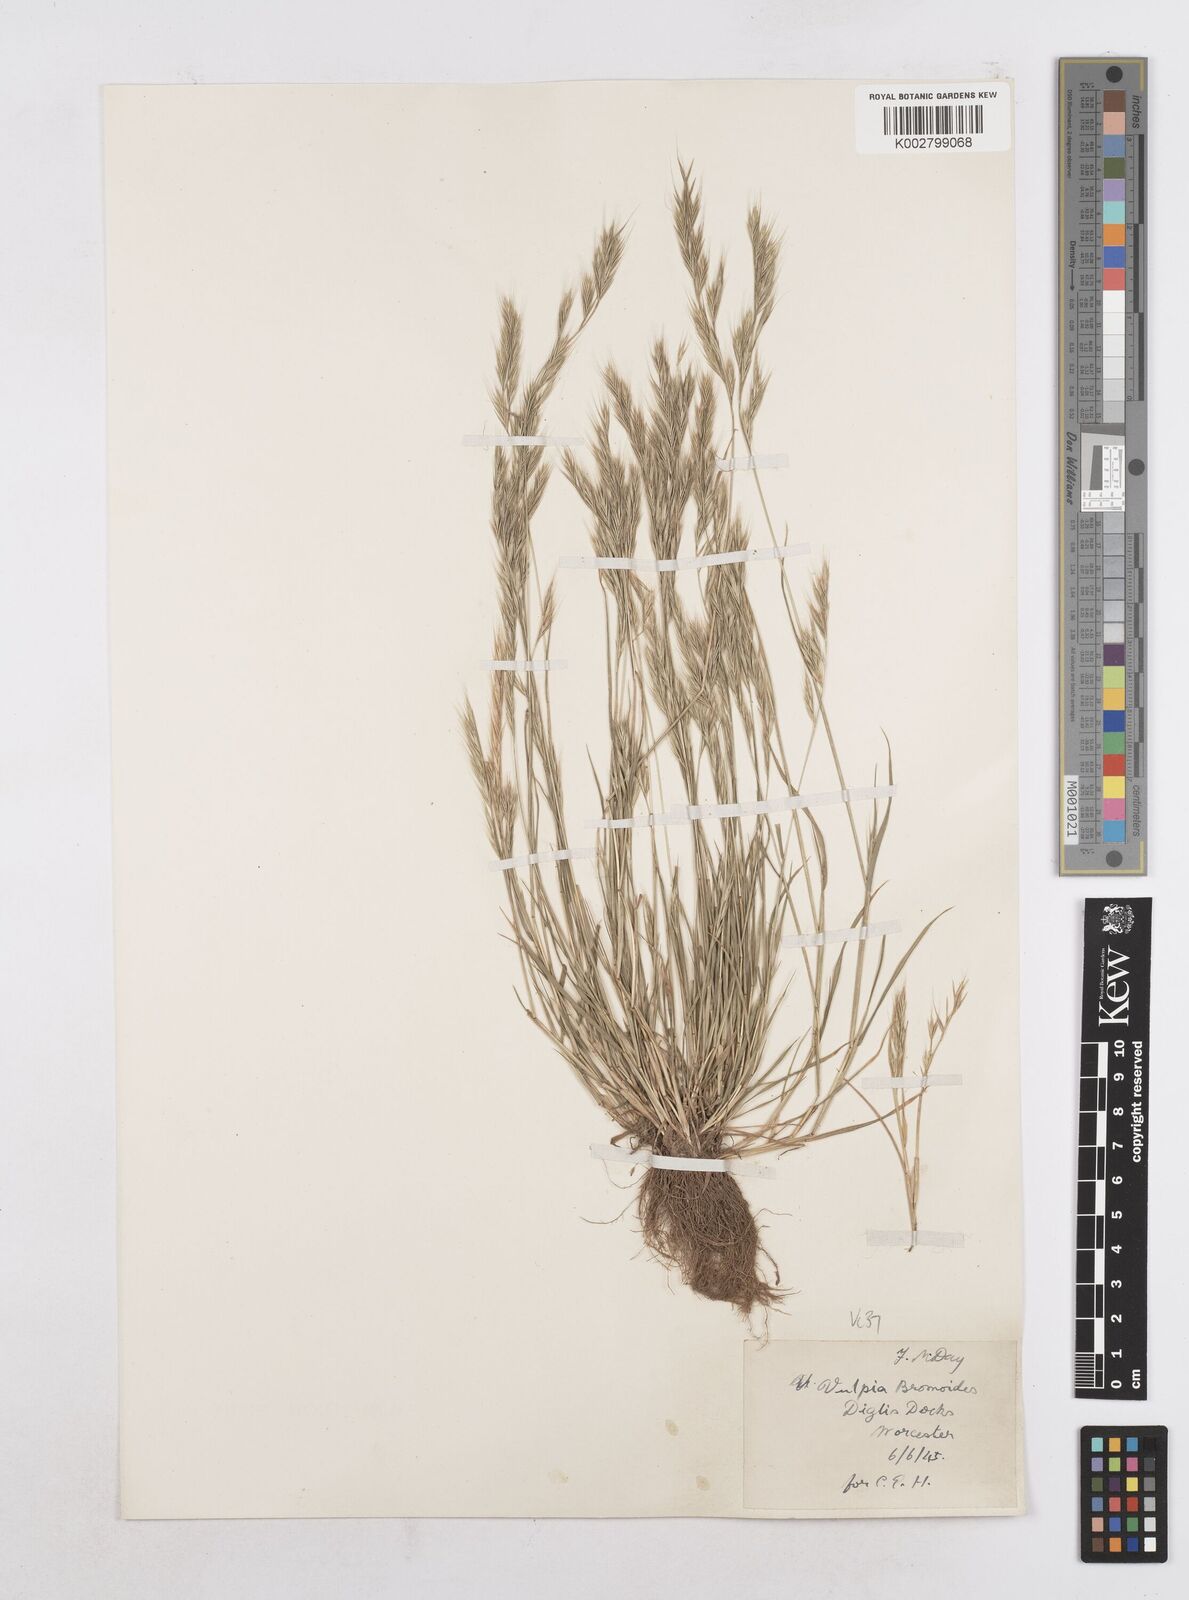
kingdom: Plantae
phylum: Tracheophyta
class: Liliopsida
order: Poales
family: Poaceae
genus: Festuca
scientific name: Festuca bromoides
